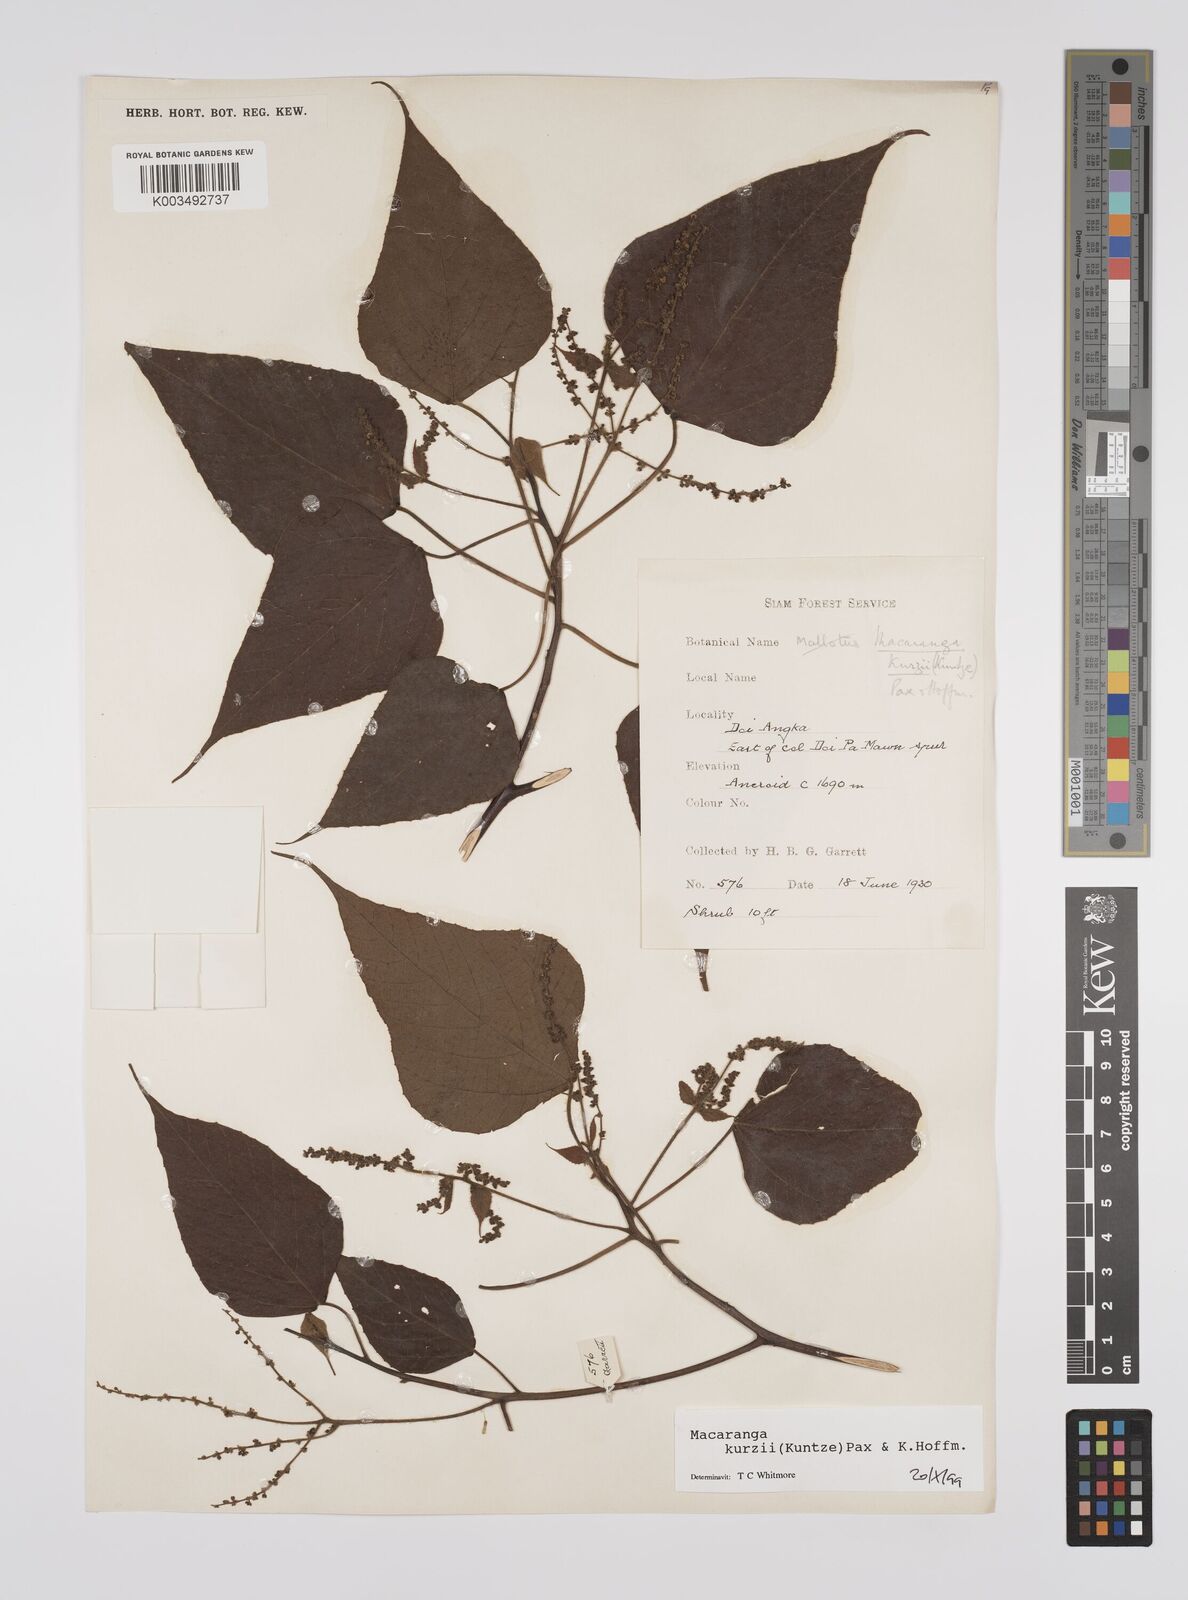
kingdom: Plantae
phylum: Tracheophyta
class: Magnoliopsida
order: Malpighiales
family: Euphorbiaceae
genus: Macaranga
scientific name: Macaranga kurzii
